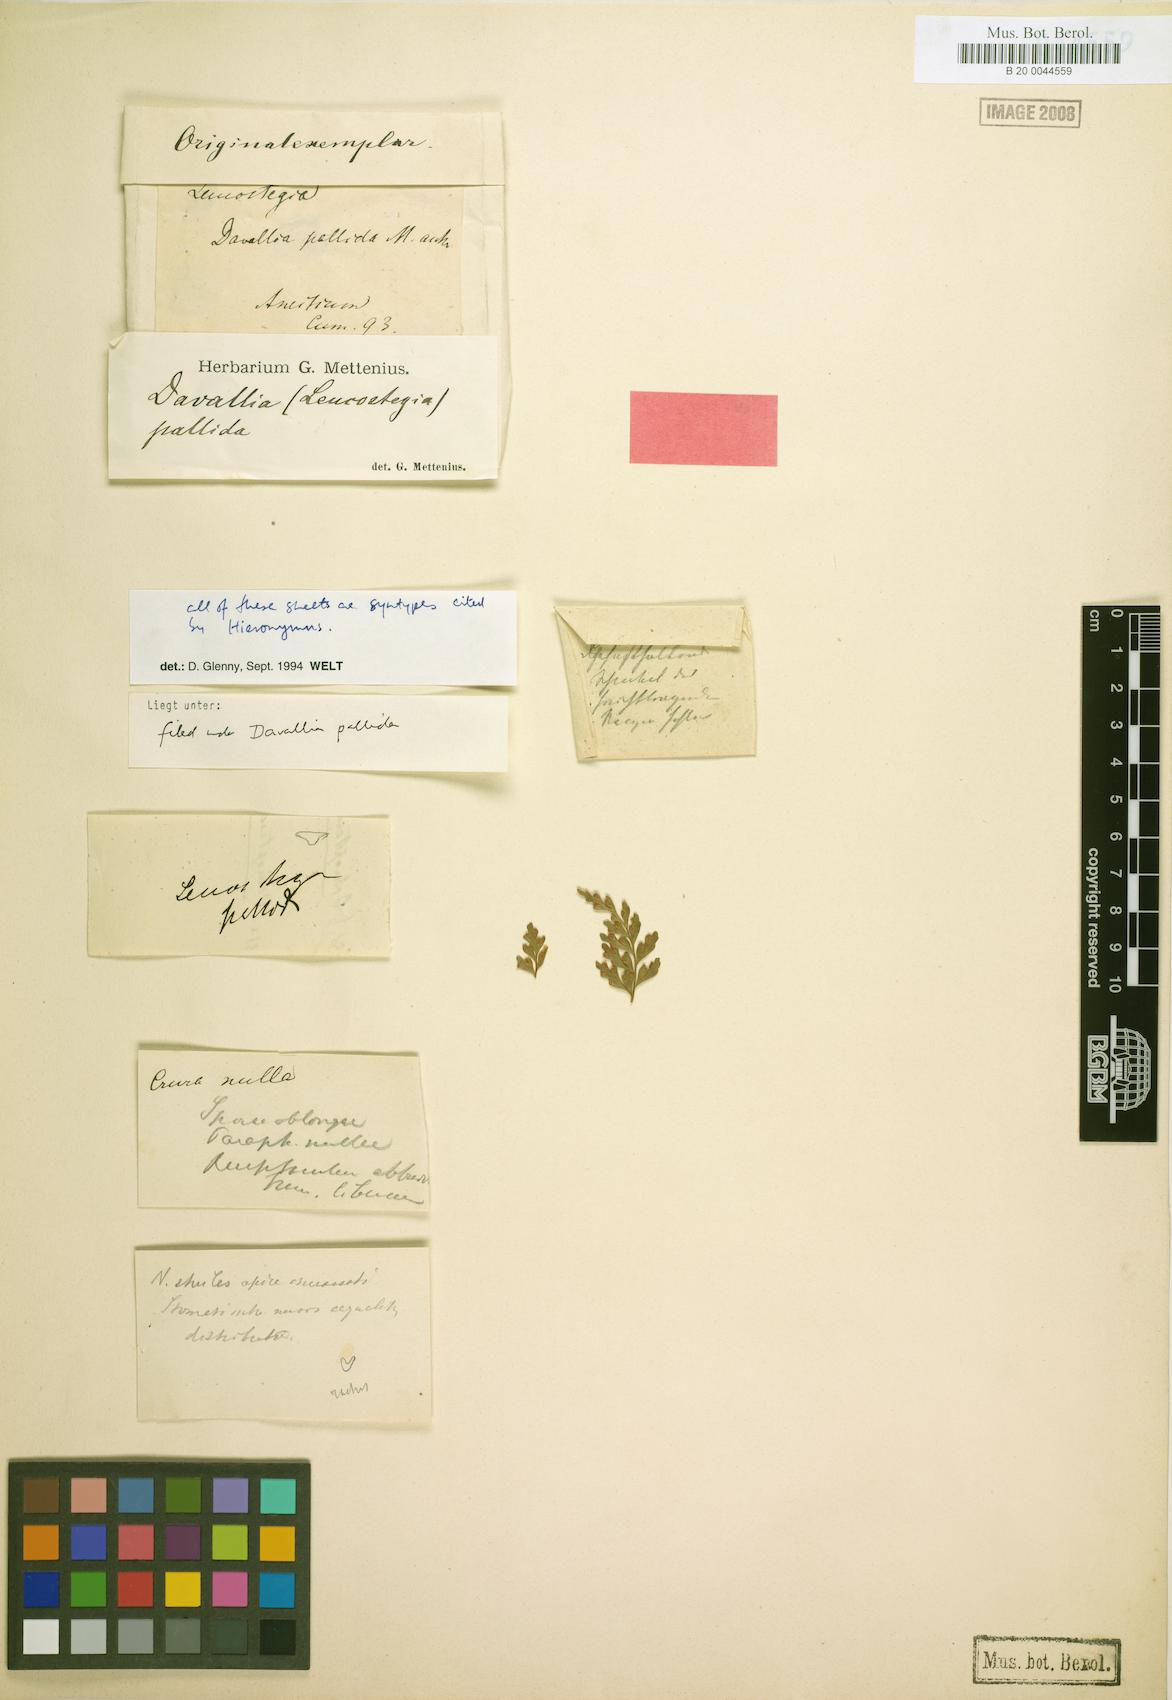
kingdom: Plantae
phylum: Tracheophyta
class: Polypodiopsida
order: Polypodiales
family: Hypodematiaceae
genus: Leucostegia
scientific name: Leucostegia pallida
